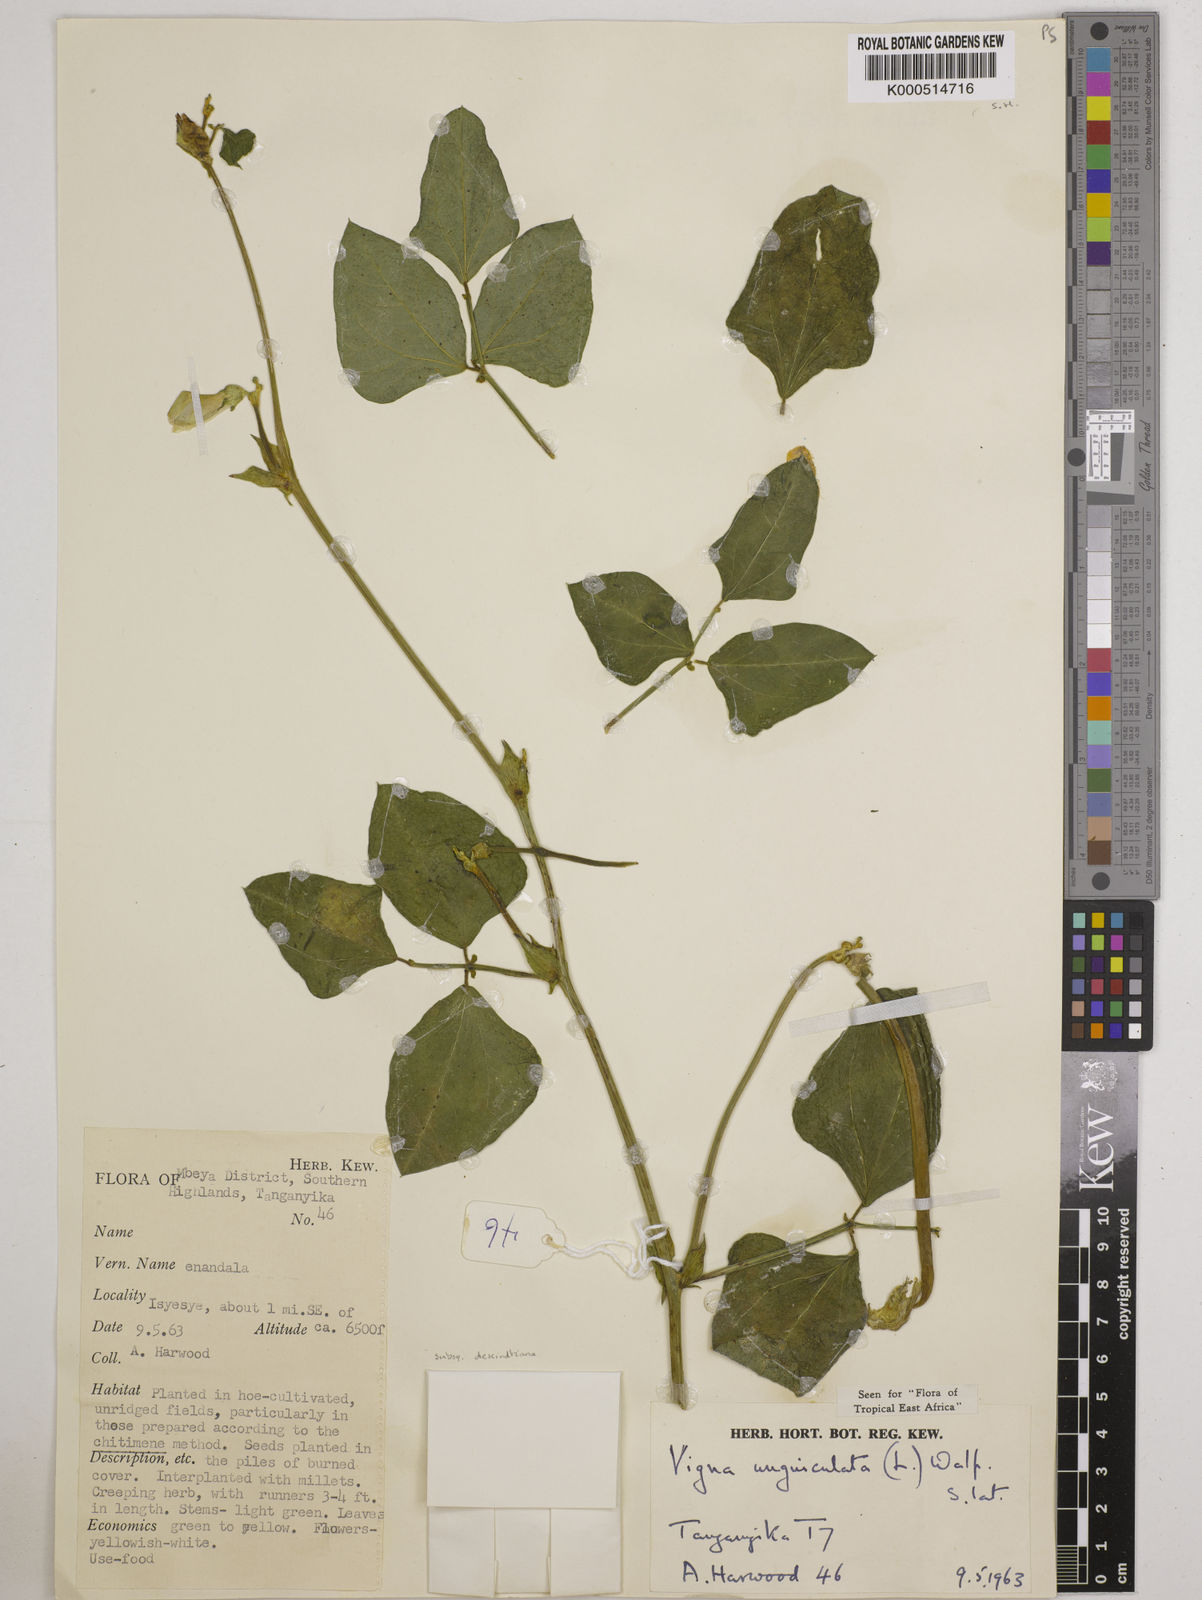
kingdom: Plantae
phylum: Tracheophyta
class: Magnoliopsida
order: Fabales
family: Fabaceae
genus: Vigna
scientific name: Vigna
